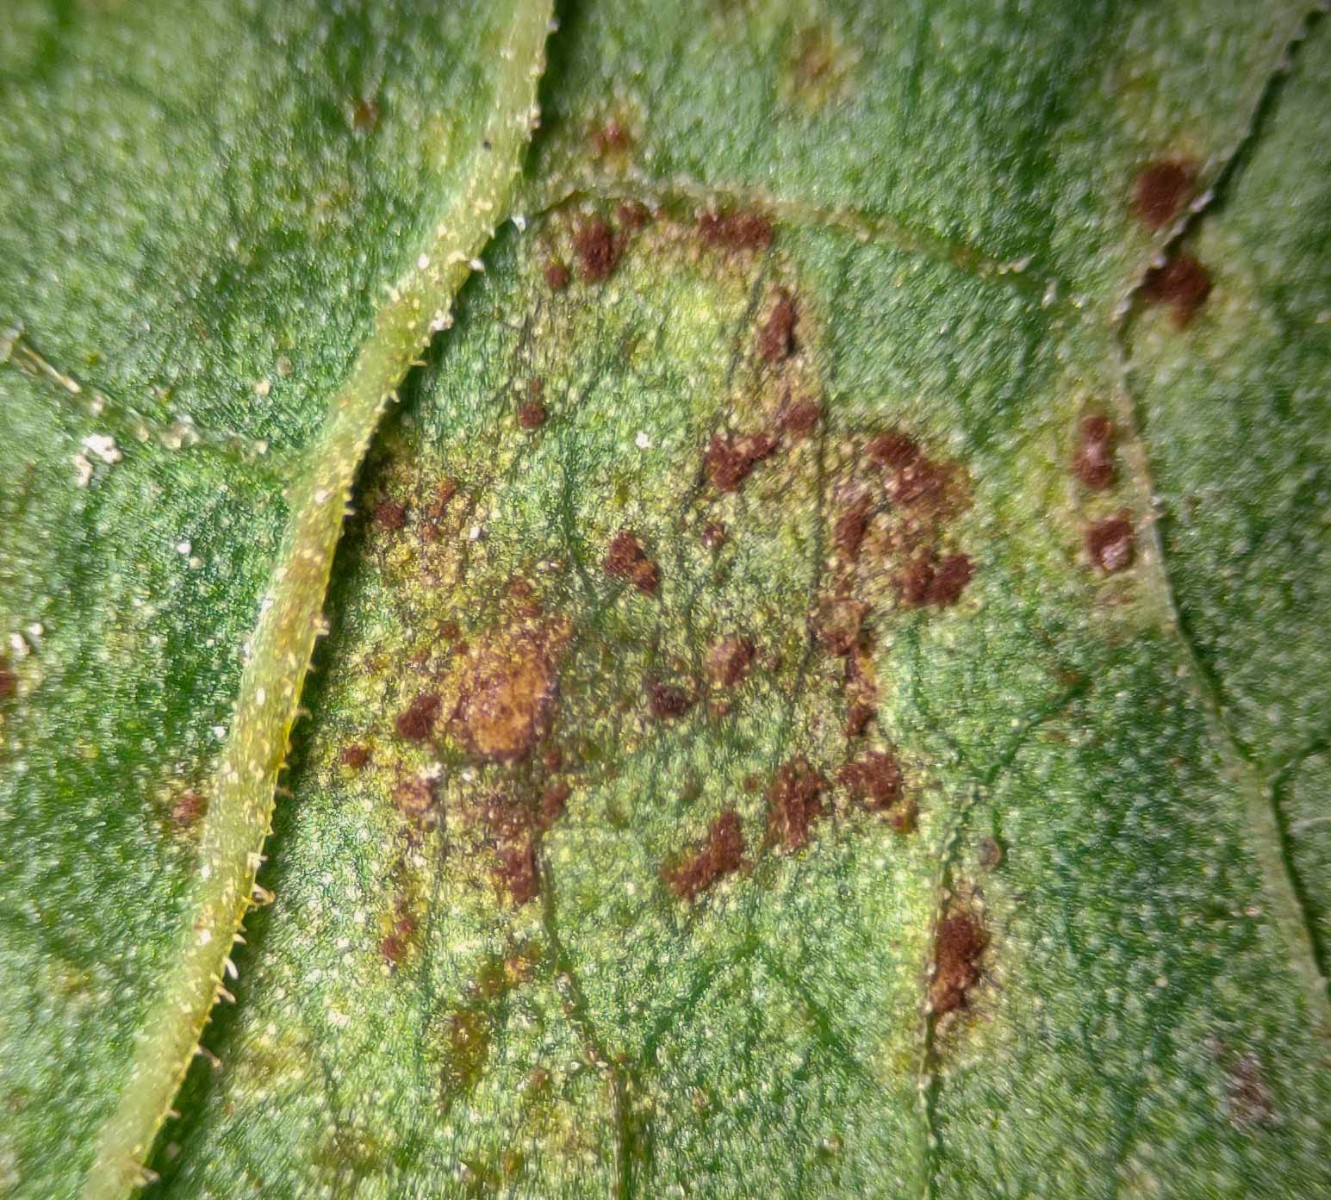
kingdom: Fungi
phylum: Basidiomycota
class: Pucciniomycetes
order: Pucciniales
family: Pucciniaceae
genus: Uromyces
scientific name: Uromyces rumicis
